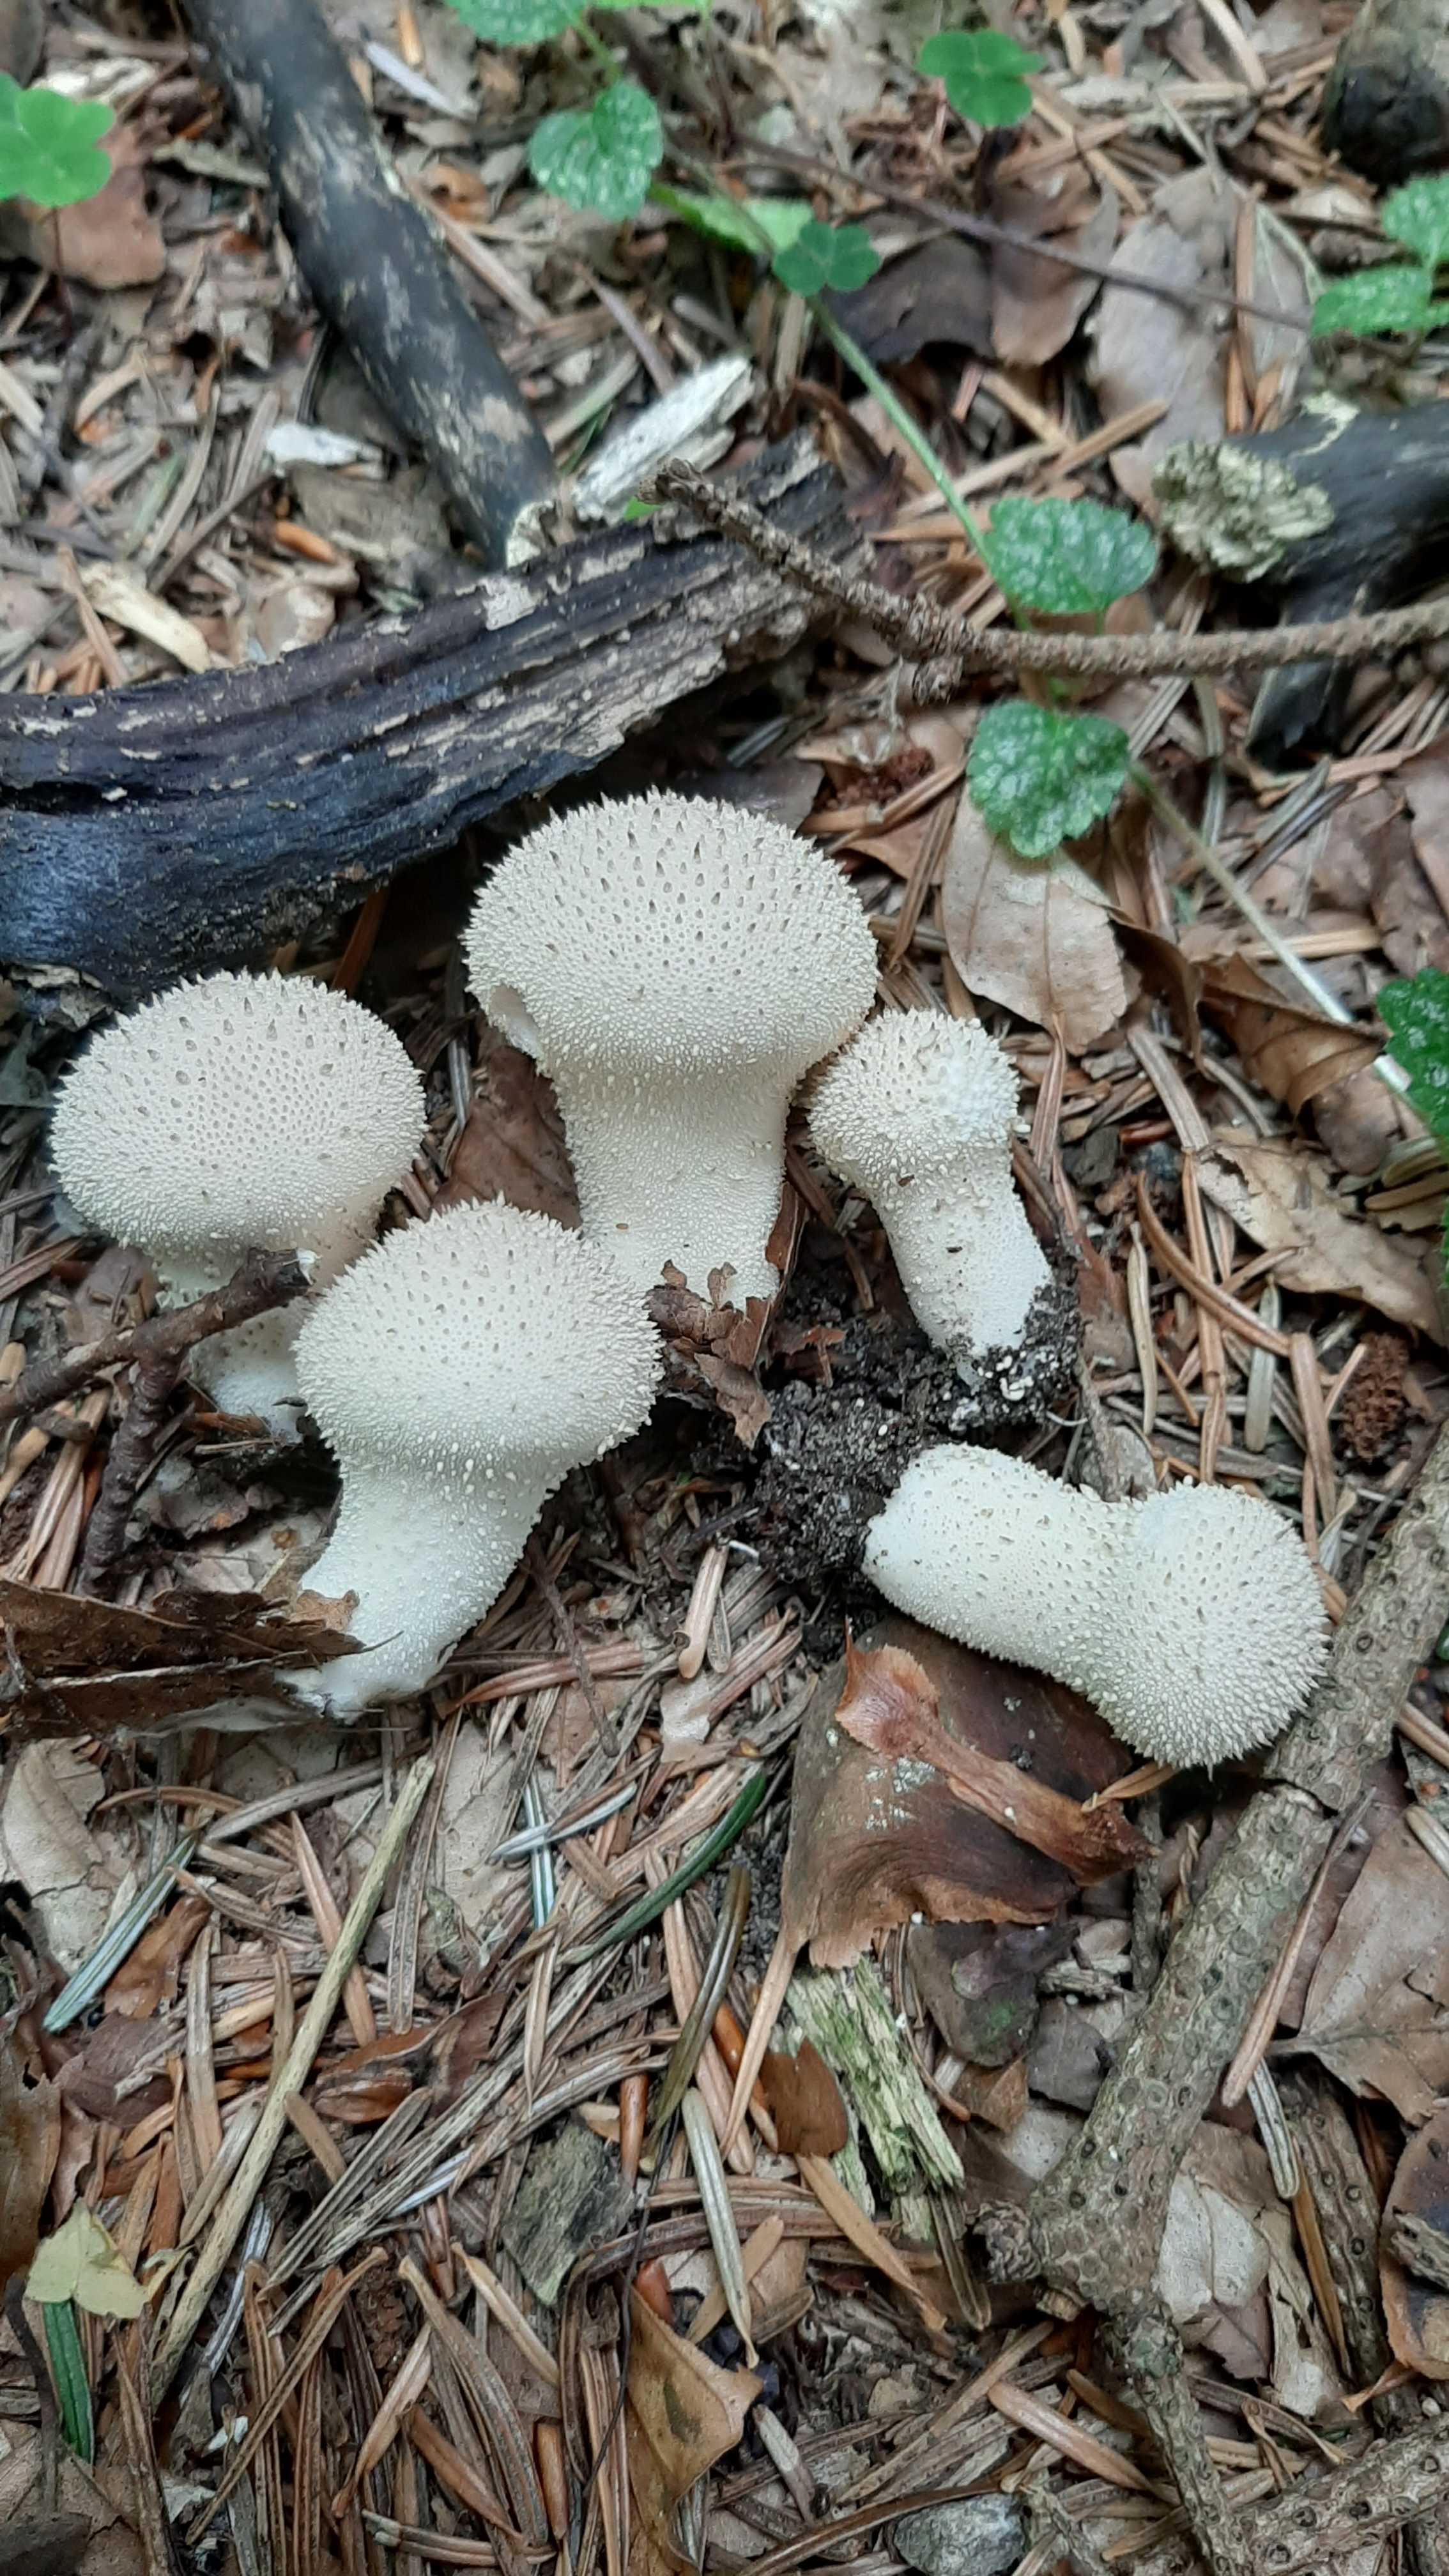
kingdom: Fungi
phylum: Basidiomycota
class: Agaricomycetes
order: Agaricales
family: Lycoperdaceae
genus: Lycoperdon
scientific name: Lycoperdon perlatum
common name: krystal-støvbold
